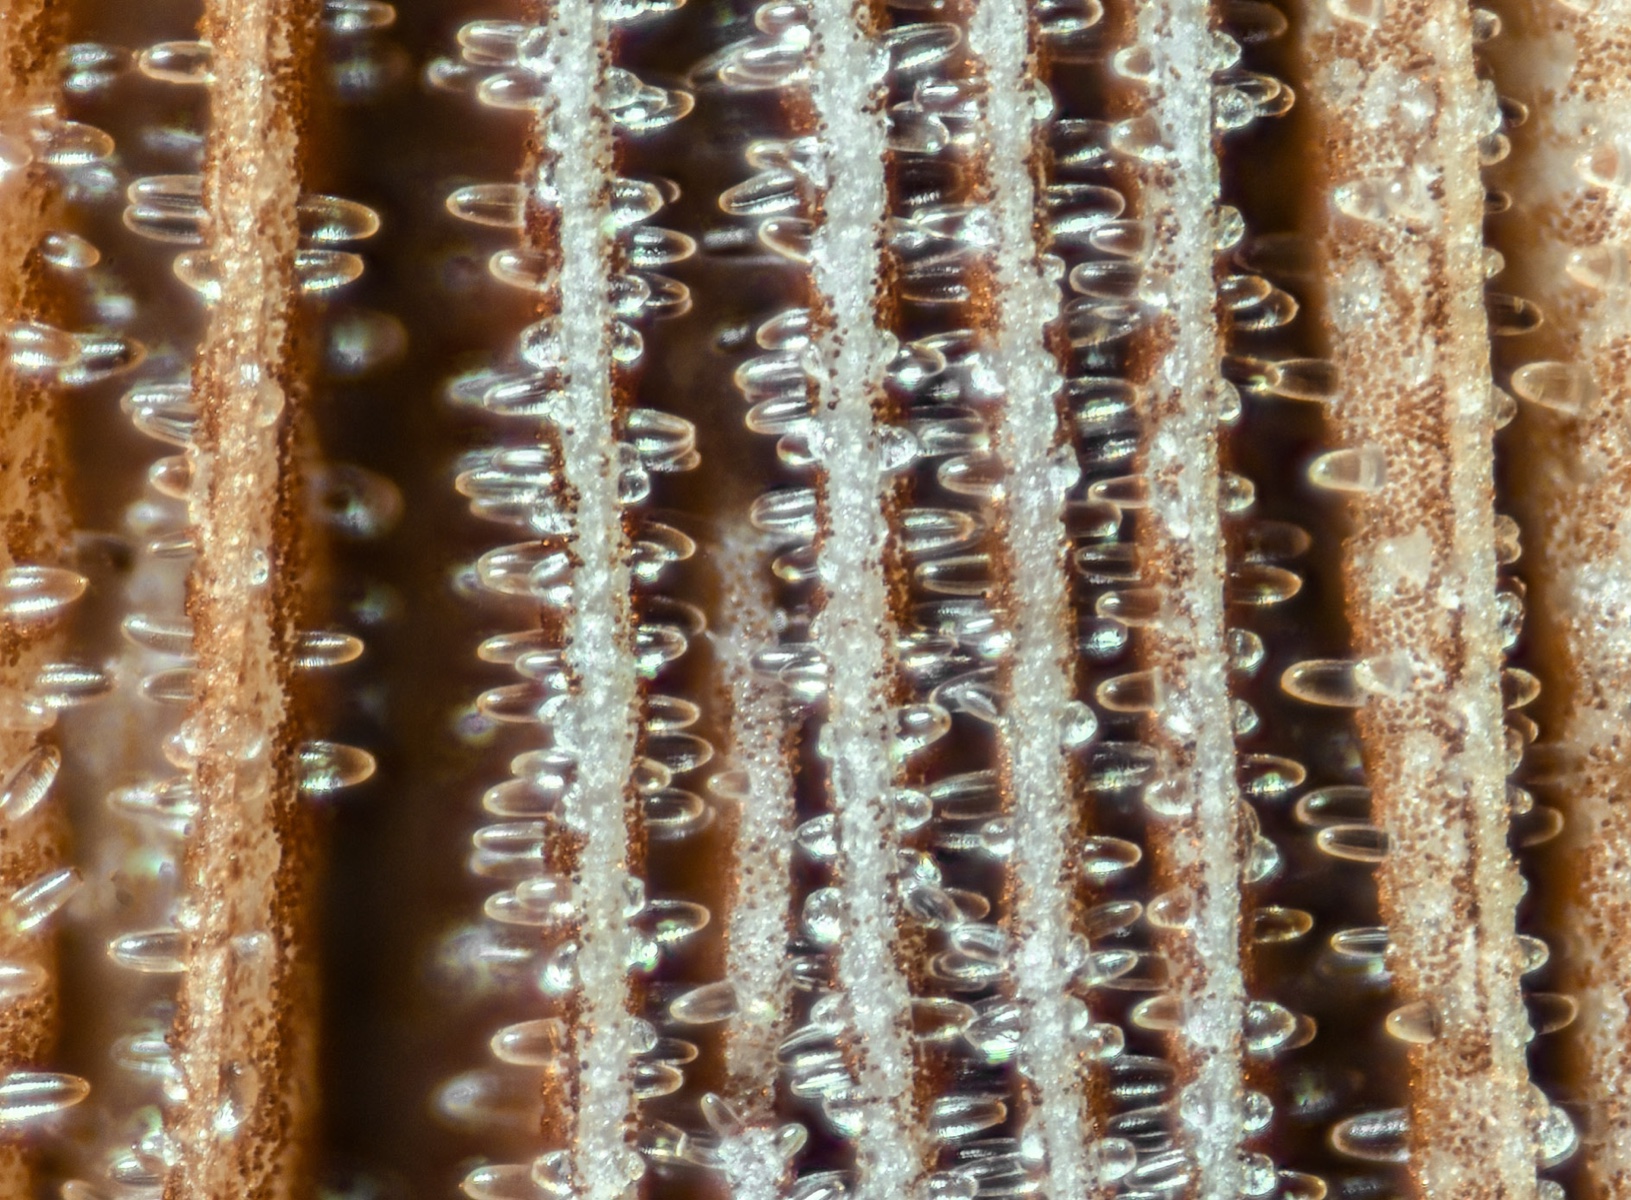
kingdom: Fungi
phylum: Basidiomycota
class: Agaricomycetes
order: Agaricales
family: Psathyrellaceae
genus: Coprinellus
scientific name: Coprinellus domesticus
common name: hus-blækhat
